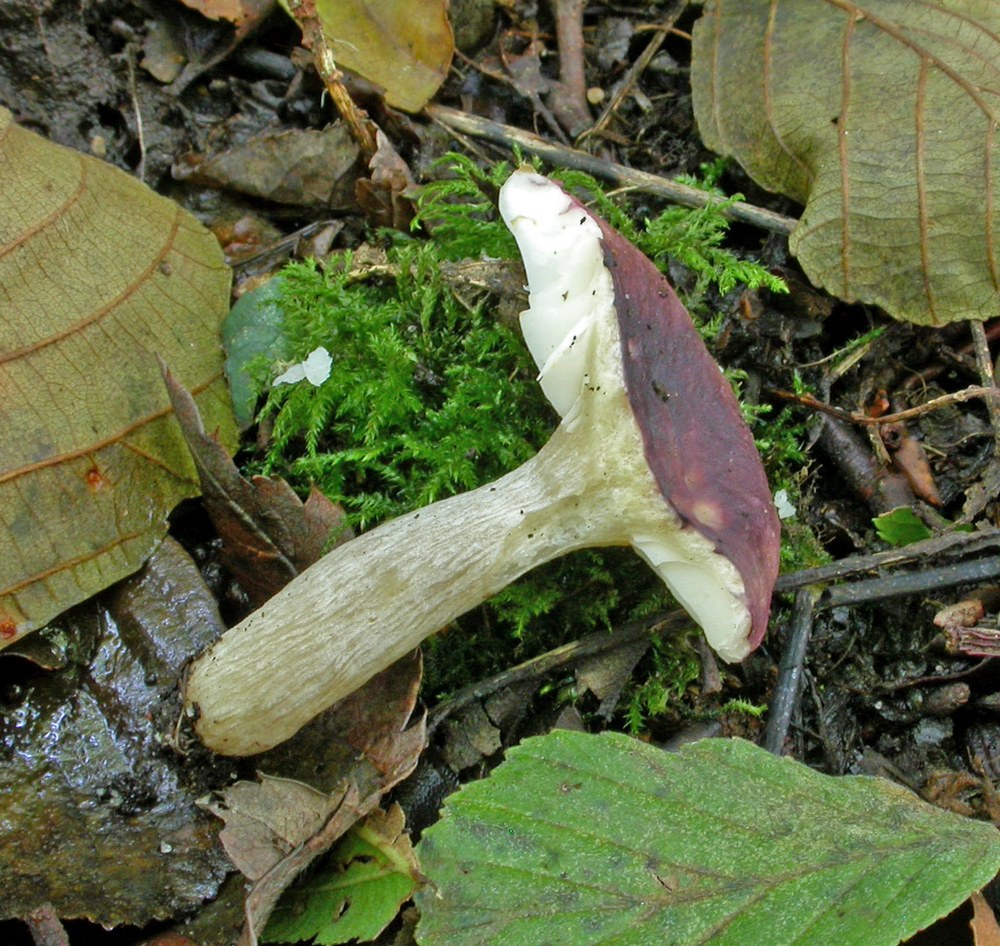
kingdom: Fungi
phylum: Basidiomycota
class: Agaricomycetes
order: Russulales
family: Russulaceae
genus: Russula
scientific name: Russula alnetorum
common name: elle-skørhat
